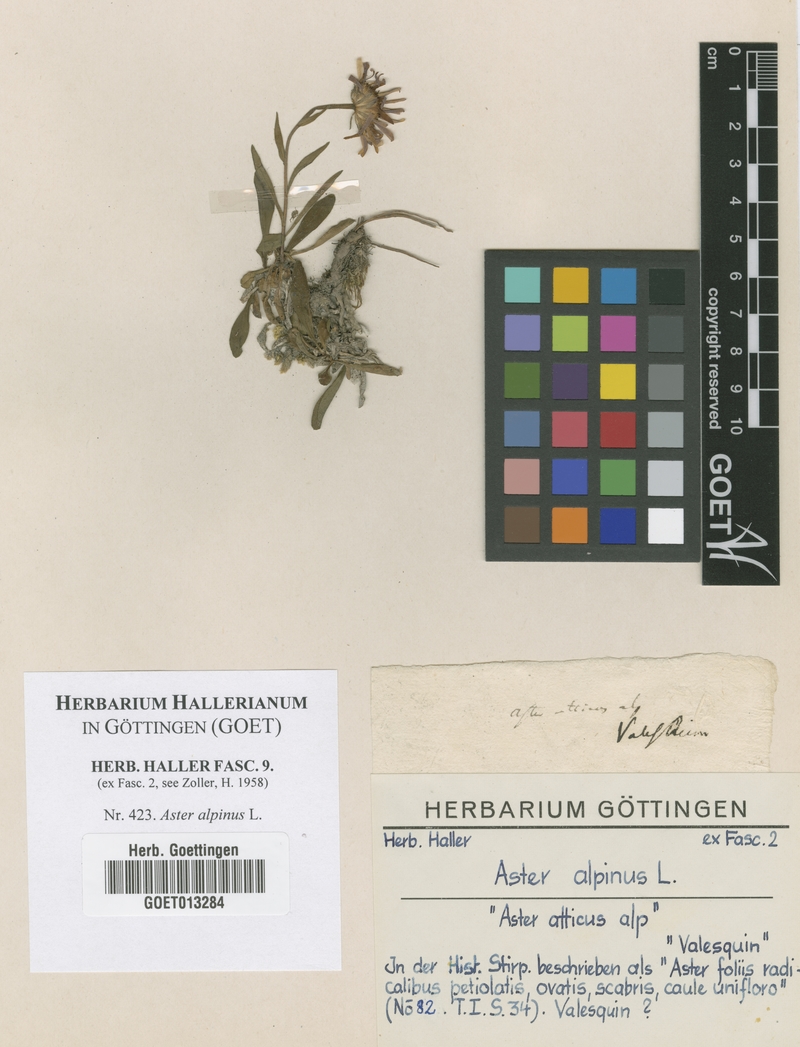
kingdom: Plantae
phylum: Tracheophyta
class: Magnoliopsida
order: Asterales
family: Asteraceae
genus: Aster
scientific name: Aster alpinus
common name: Alpine aster
